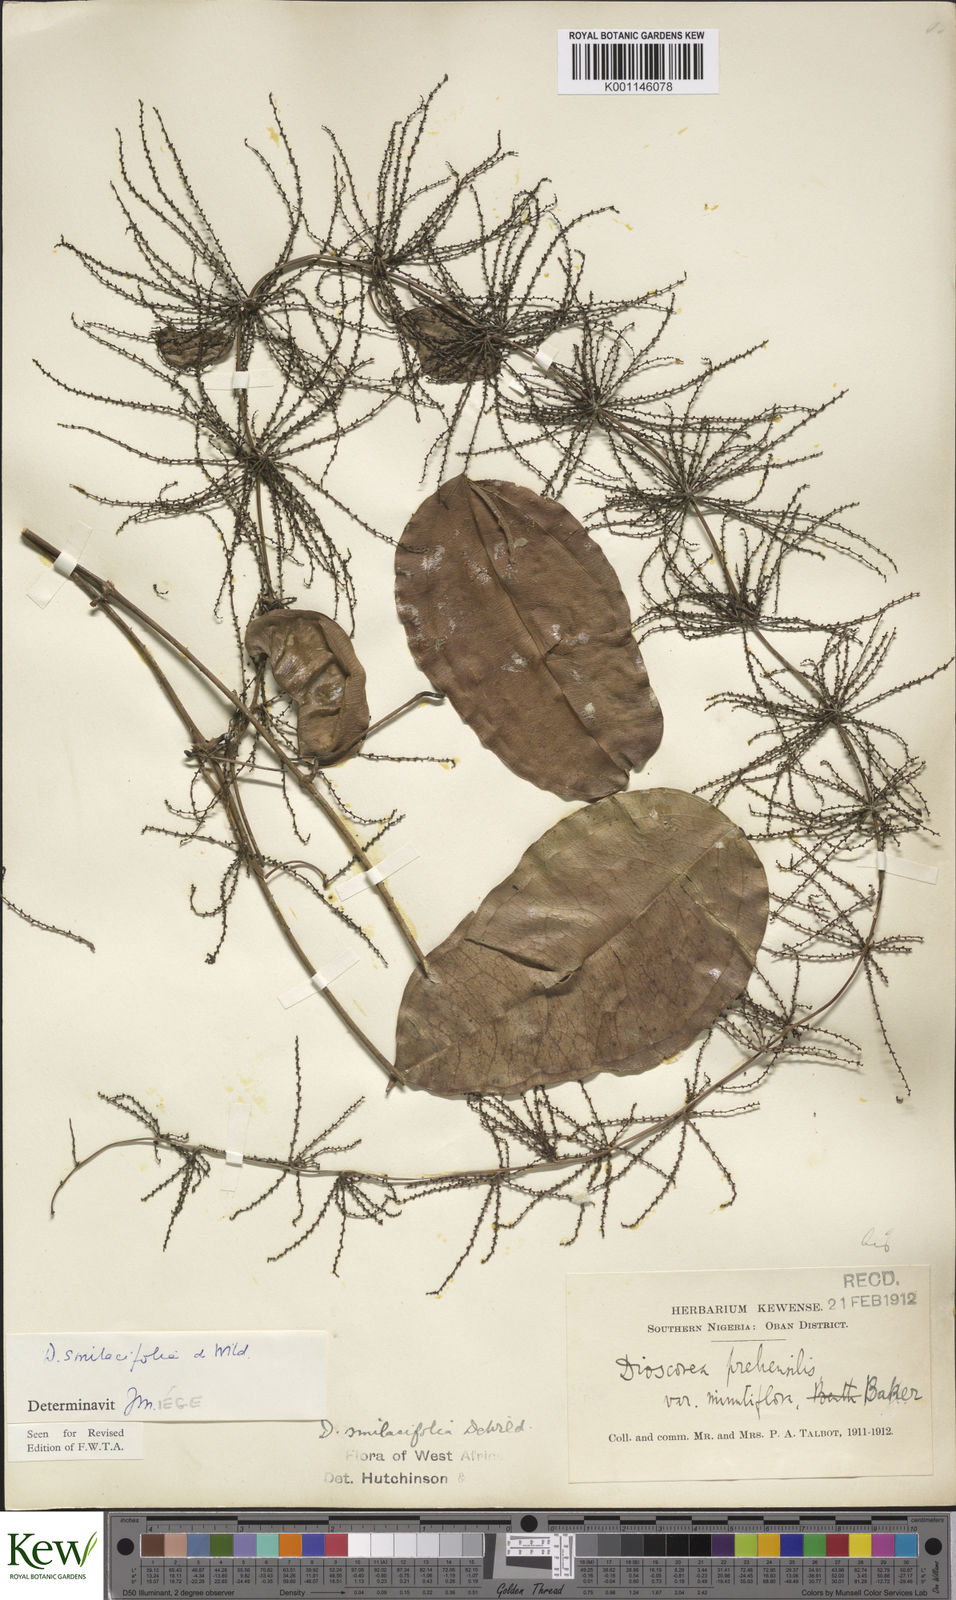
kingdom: Plantae
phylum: Tracheophyta
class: Liliopsida
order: Dioscoreales
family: Dioscoreaceae
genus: Dioscorea
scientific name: Dioscorea smilacifolia
